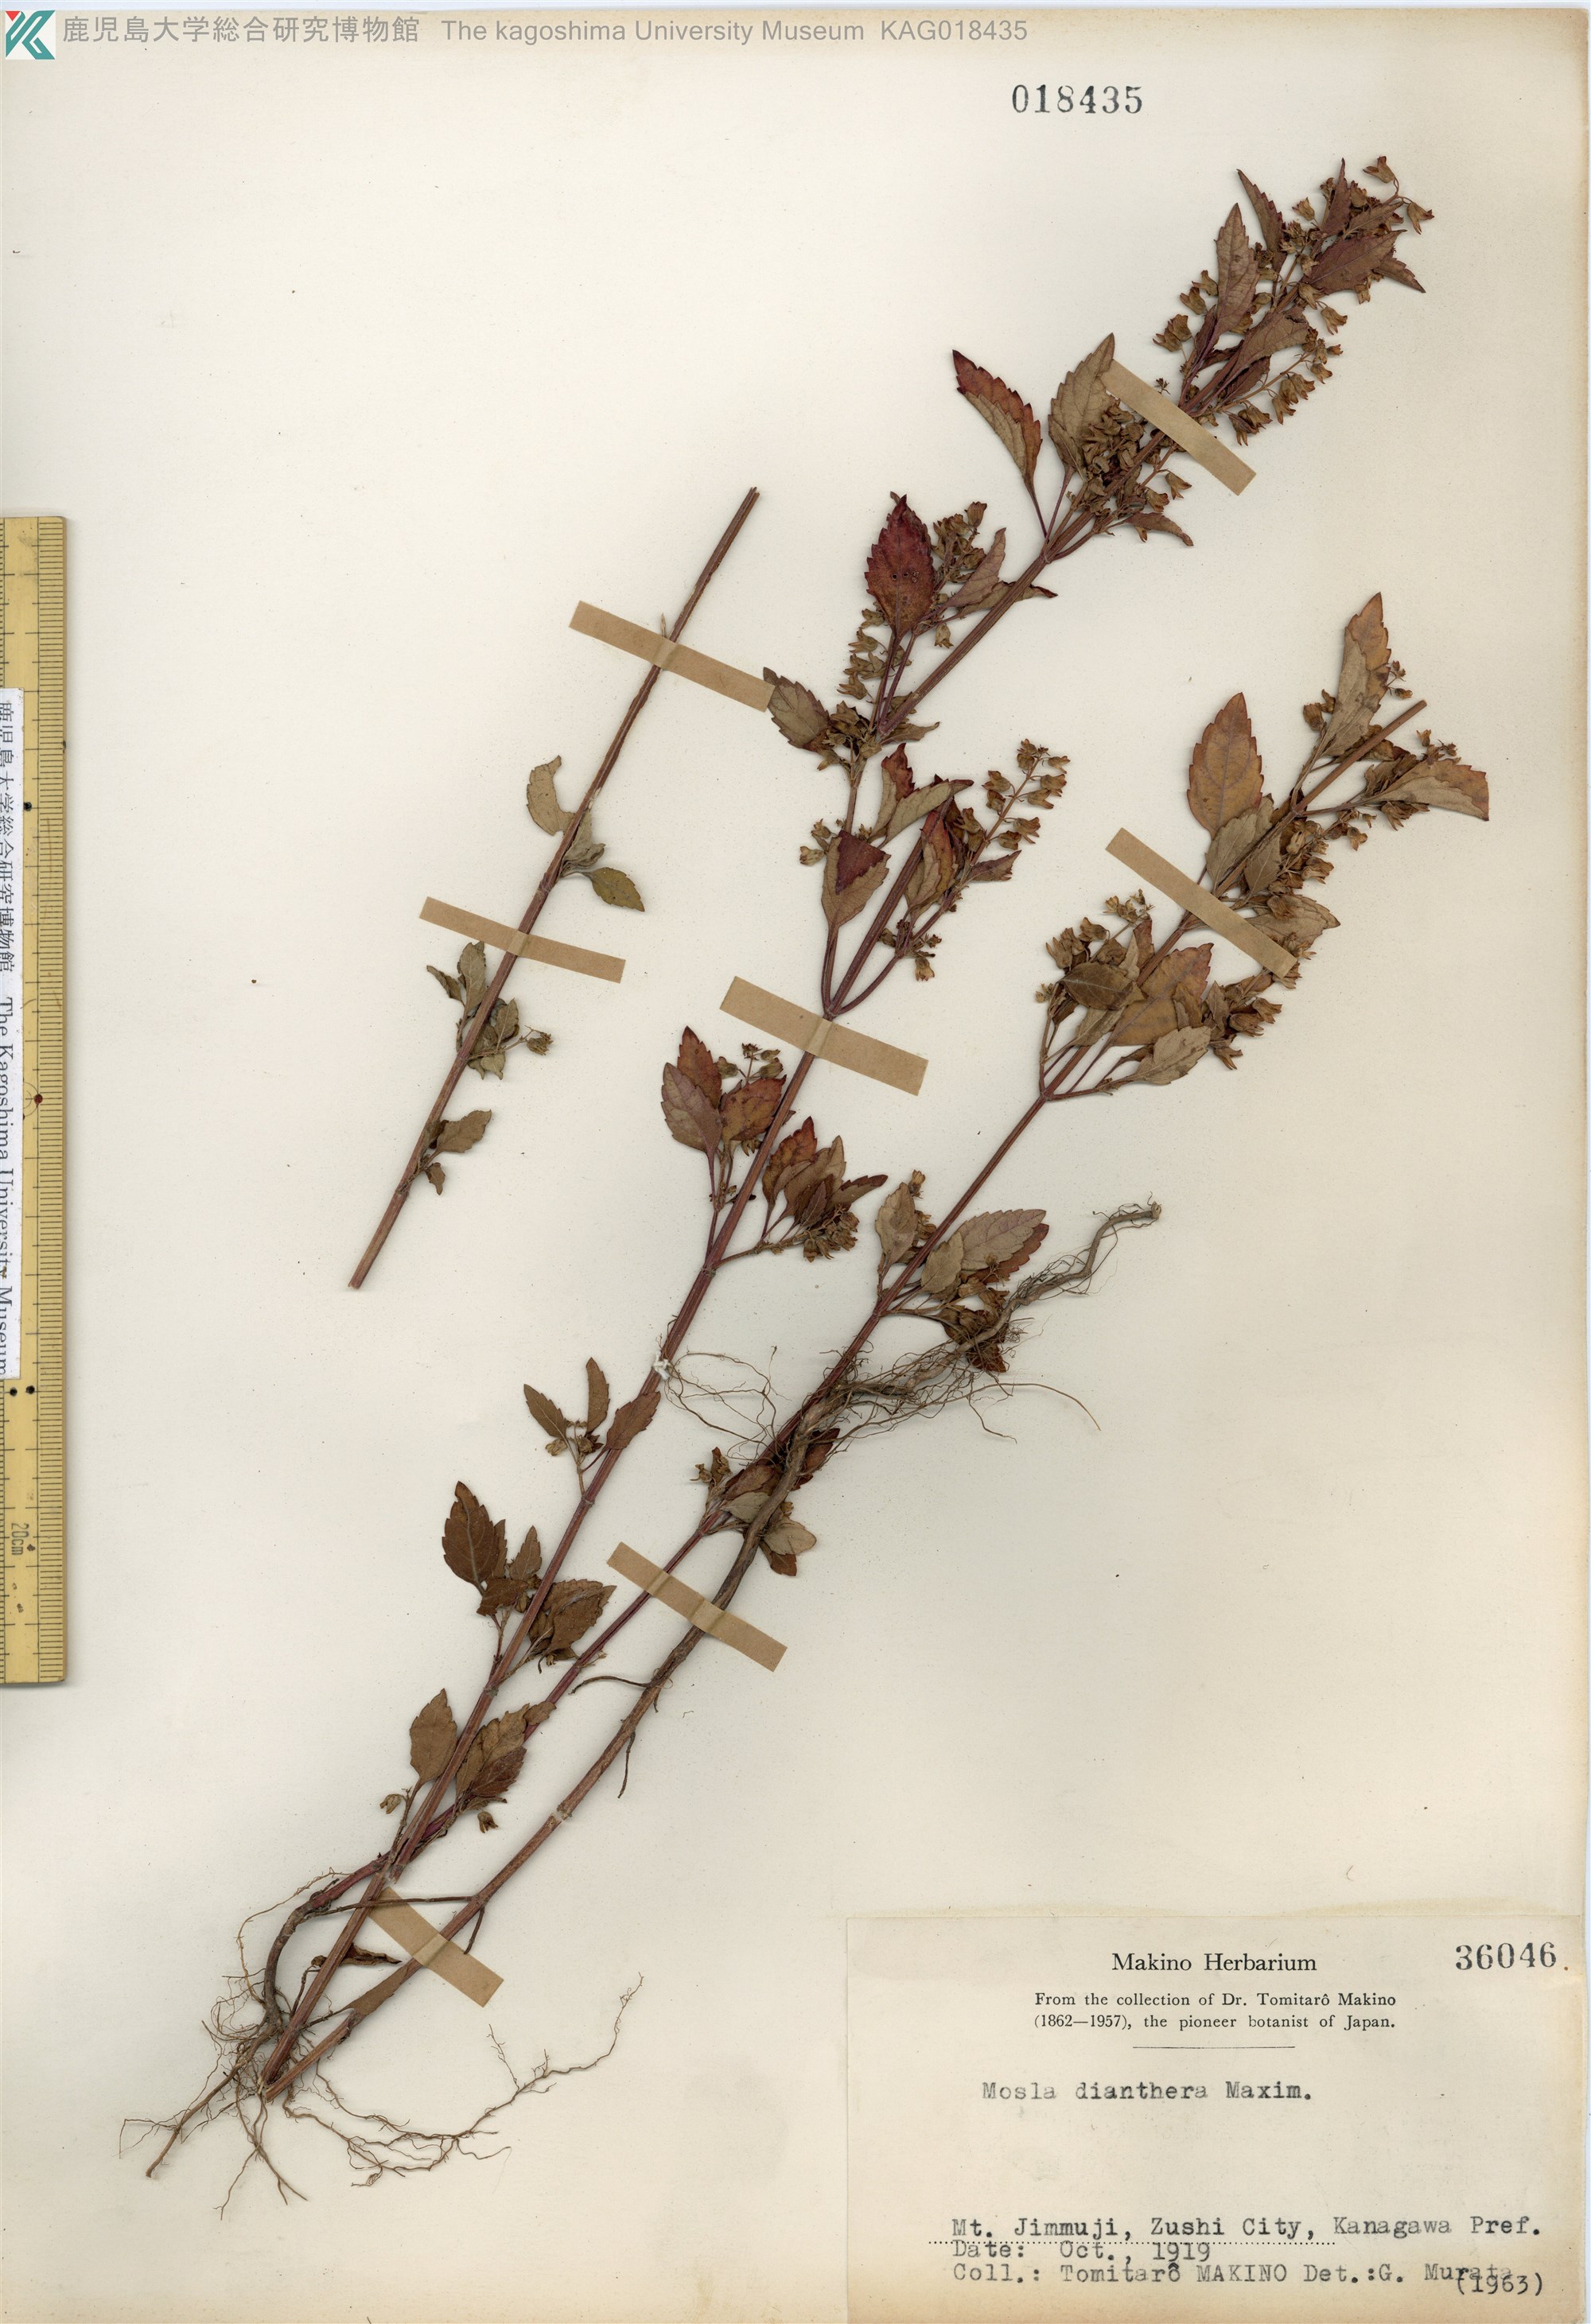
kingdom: Plantae
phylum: Tracheophyta
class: Magnoliopsida
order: Lamiales
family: Lamiaceae
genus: Mosla
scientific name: Mosla dianthera
